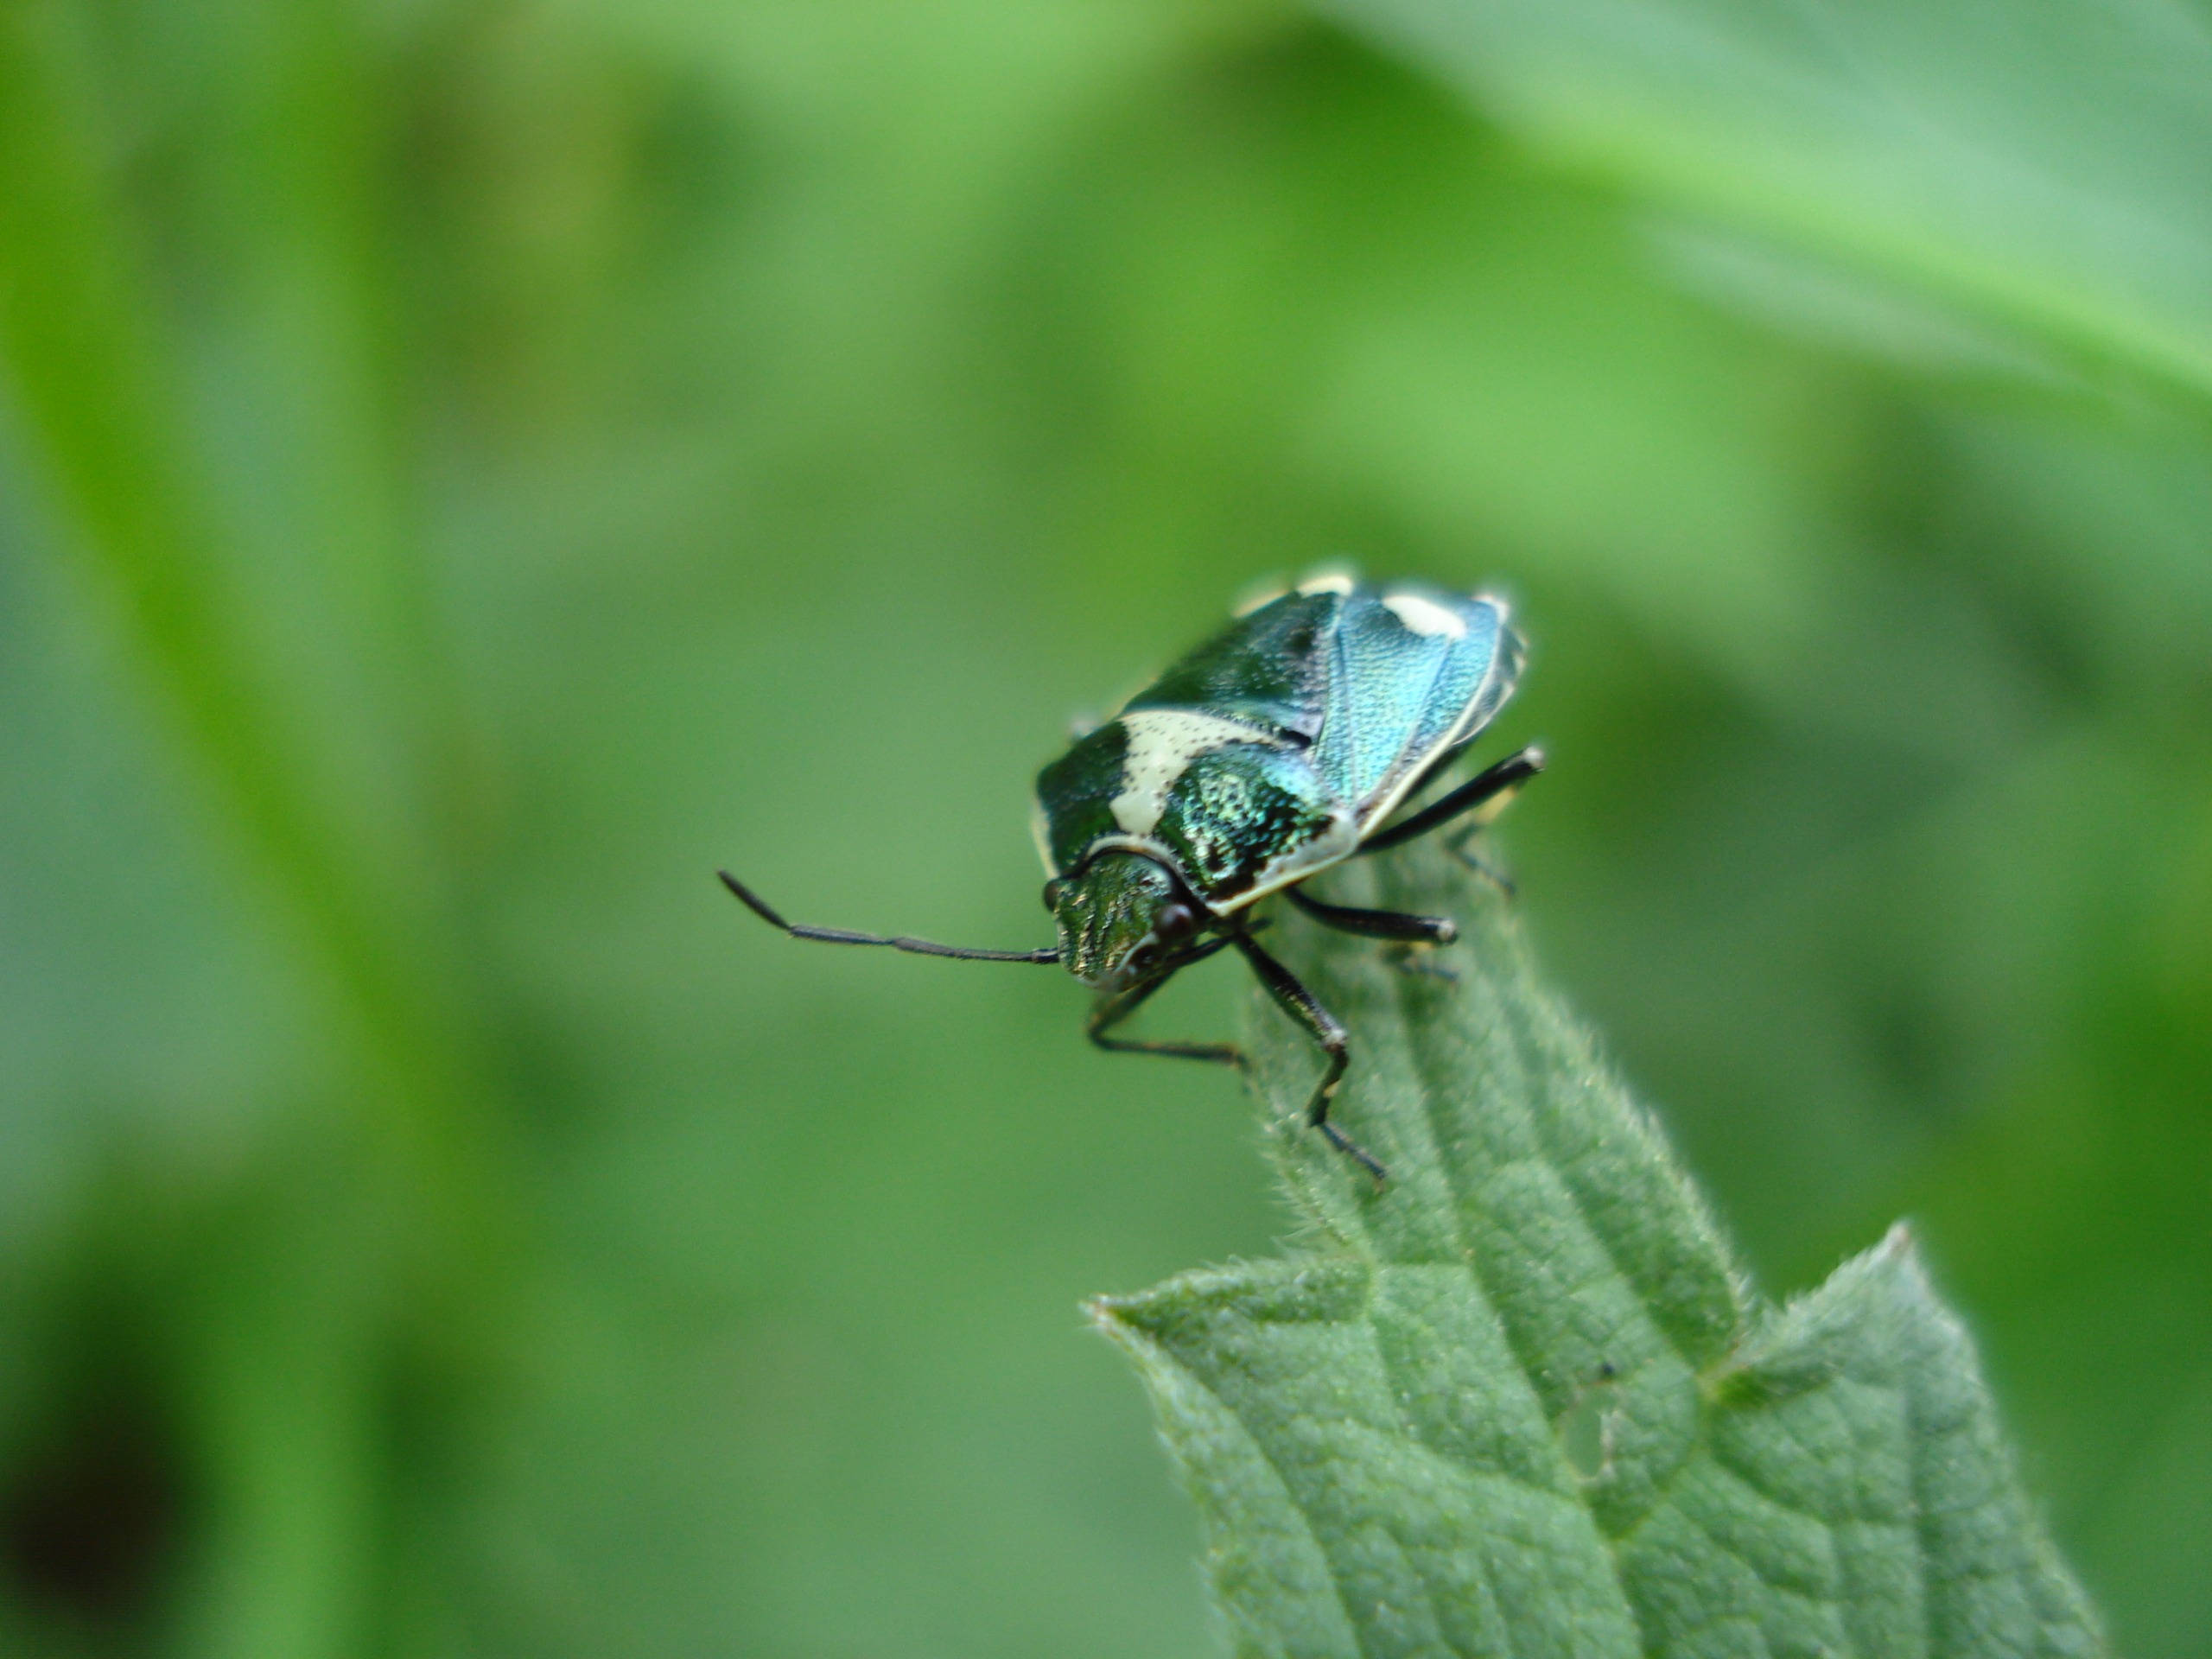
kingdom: Animalia
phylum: Arthropoda
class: Insecta
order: Hemiptera
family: Pentatomidae
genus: Eurydema
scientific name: Eurydema oleracea
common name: Almindelig kåltæge
